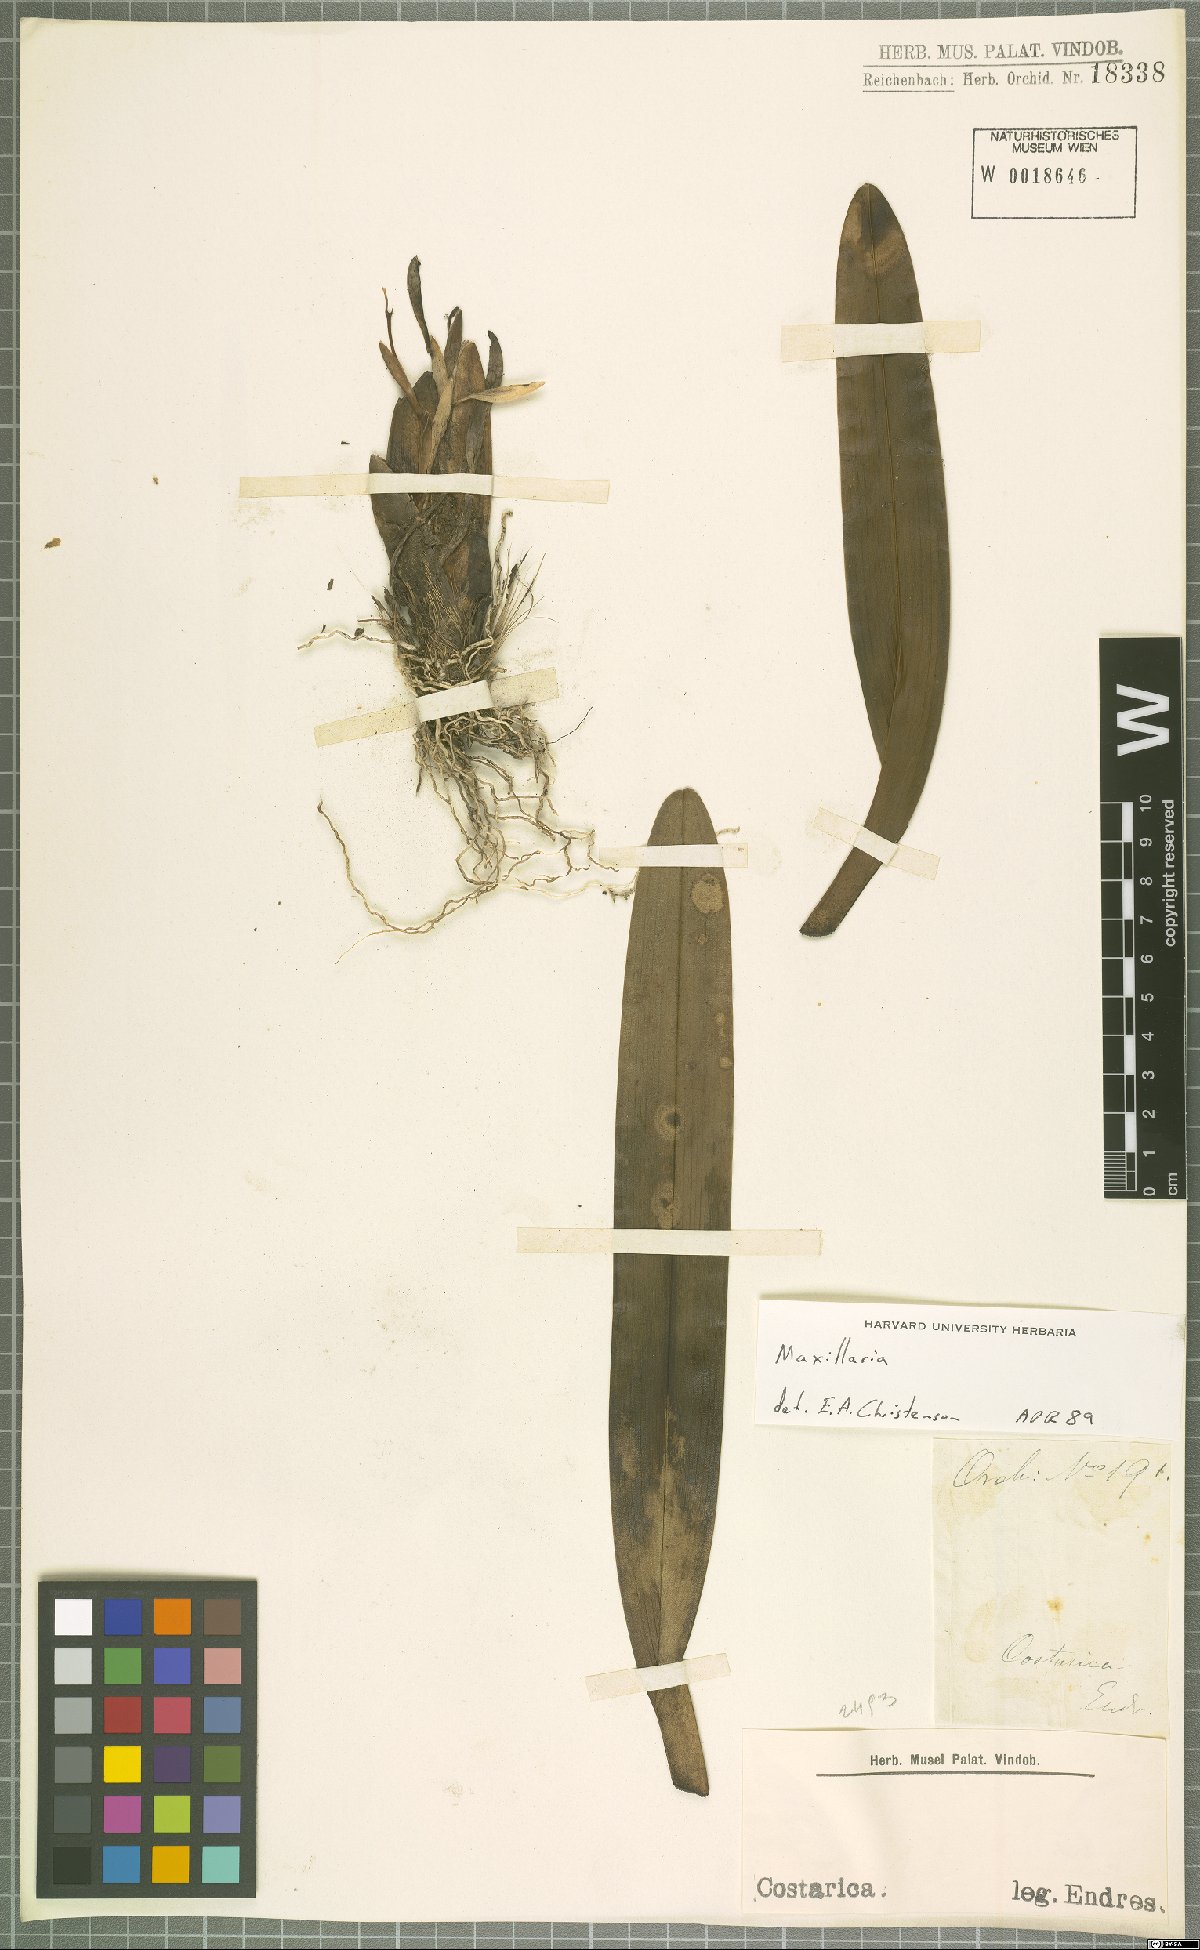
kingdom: Plantae
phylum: Tracheophyta
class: Liliopsida
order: Asparagales
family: Orchidaceae
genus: Maxillaria
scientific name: Maxillaria
